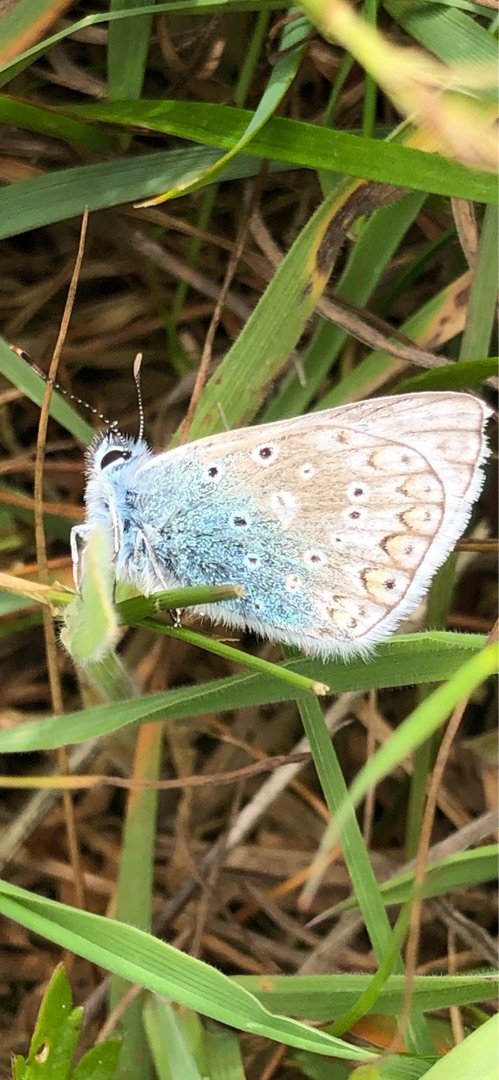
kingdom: Animalia
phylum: Arthropoda
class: Insecta
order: Lepidoptera
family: Lycaenidae
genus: Polyommatus
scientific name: Polyommatus icarus
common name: Almindelig blåfugl
